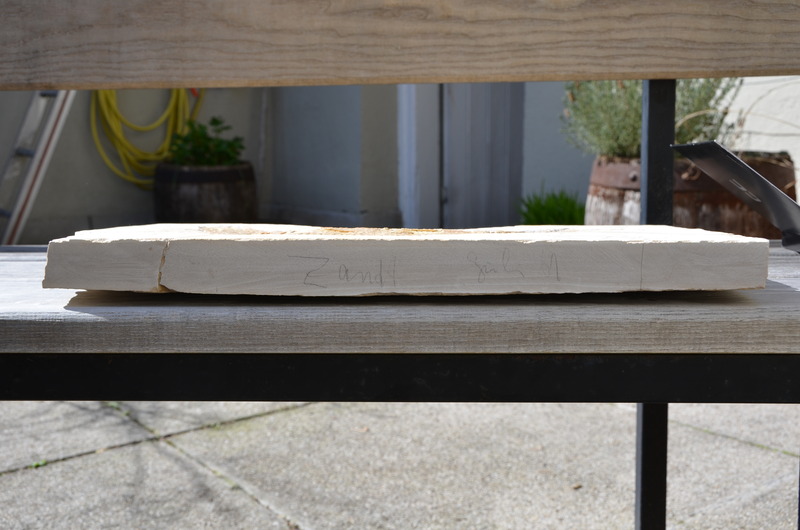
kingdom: Animalia
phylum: Chordata
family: Aspidorhynchidae
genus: Aspidorhynchus
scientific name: Aspidorhynchus acutirostris
